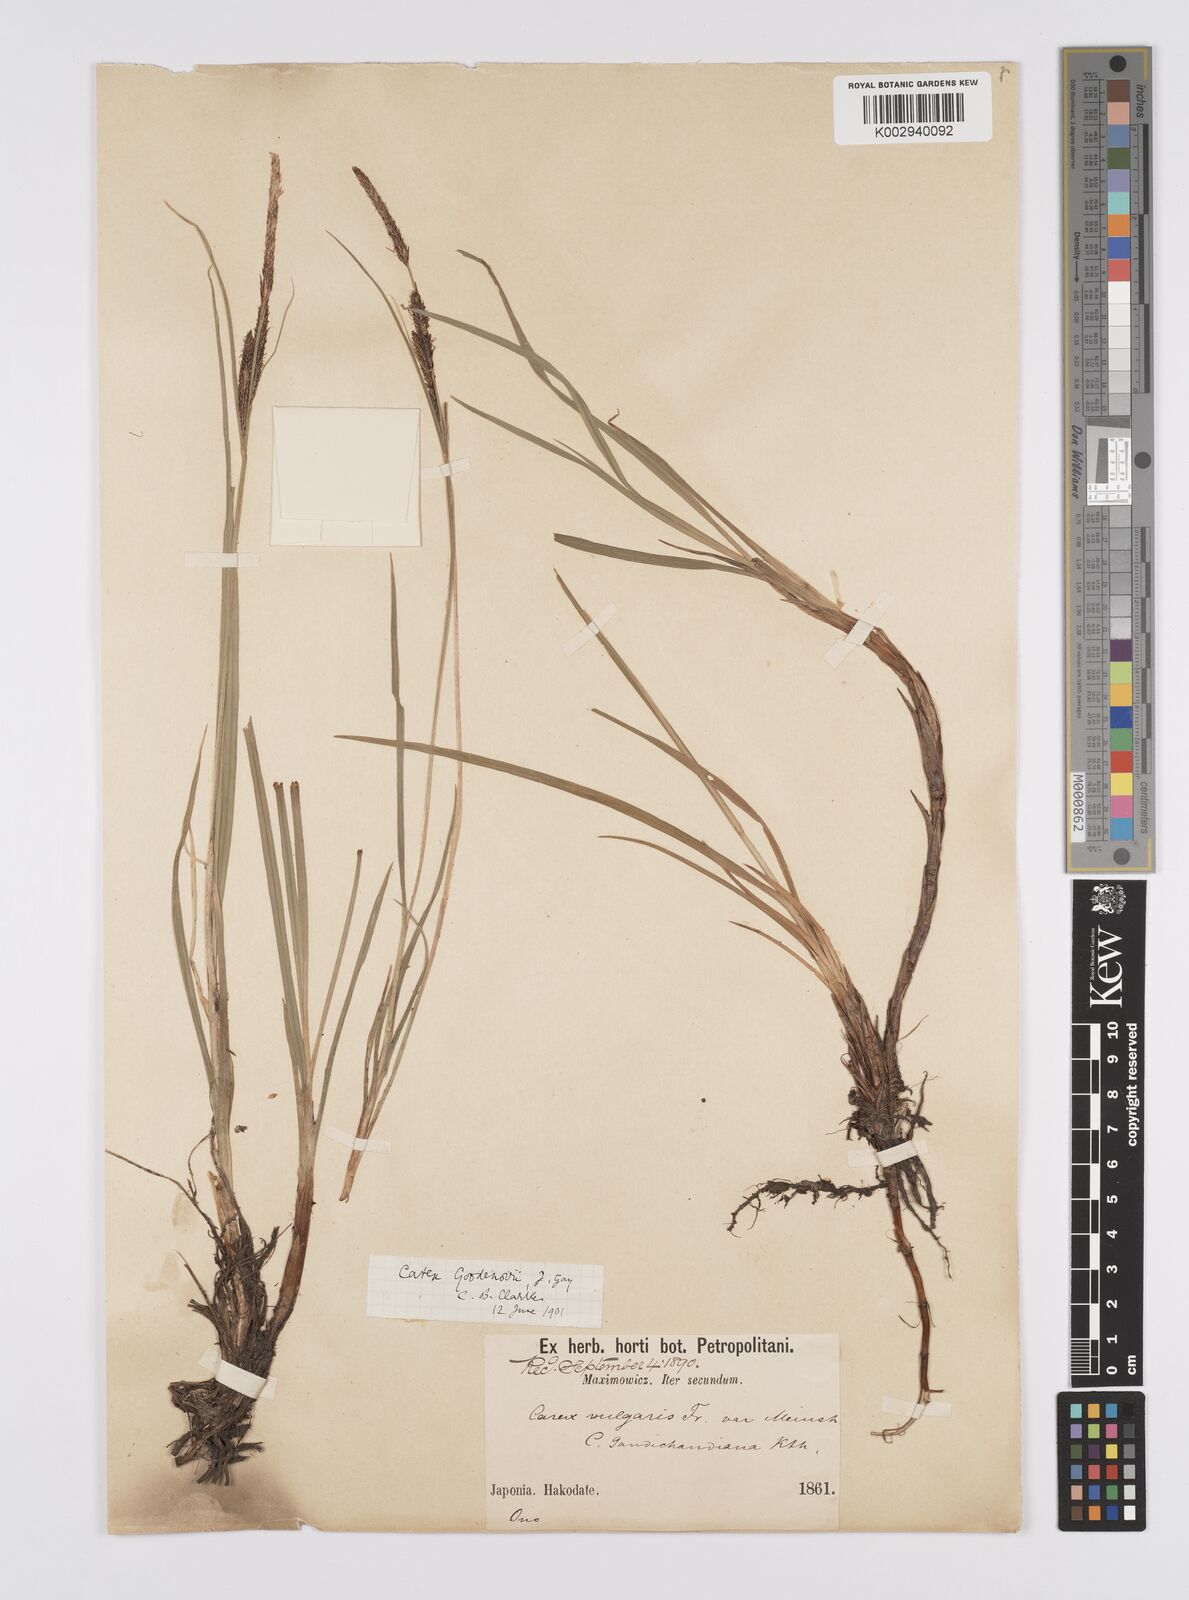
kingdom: Plantae
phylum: Tracheophyta
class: Liliopsida
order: Poales
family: Cyperaceae
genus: Carex
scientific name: Carex thunbergii
